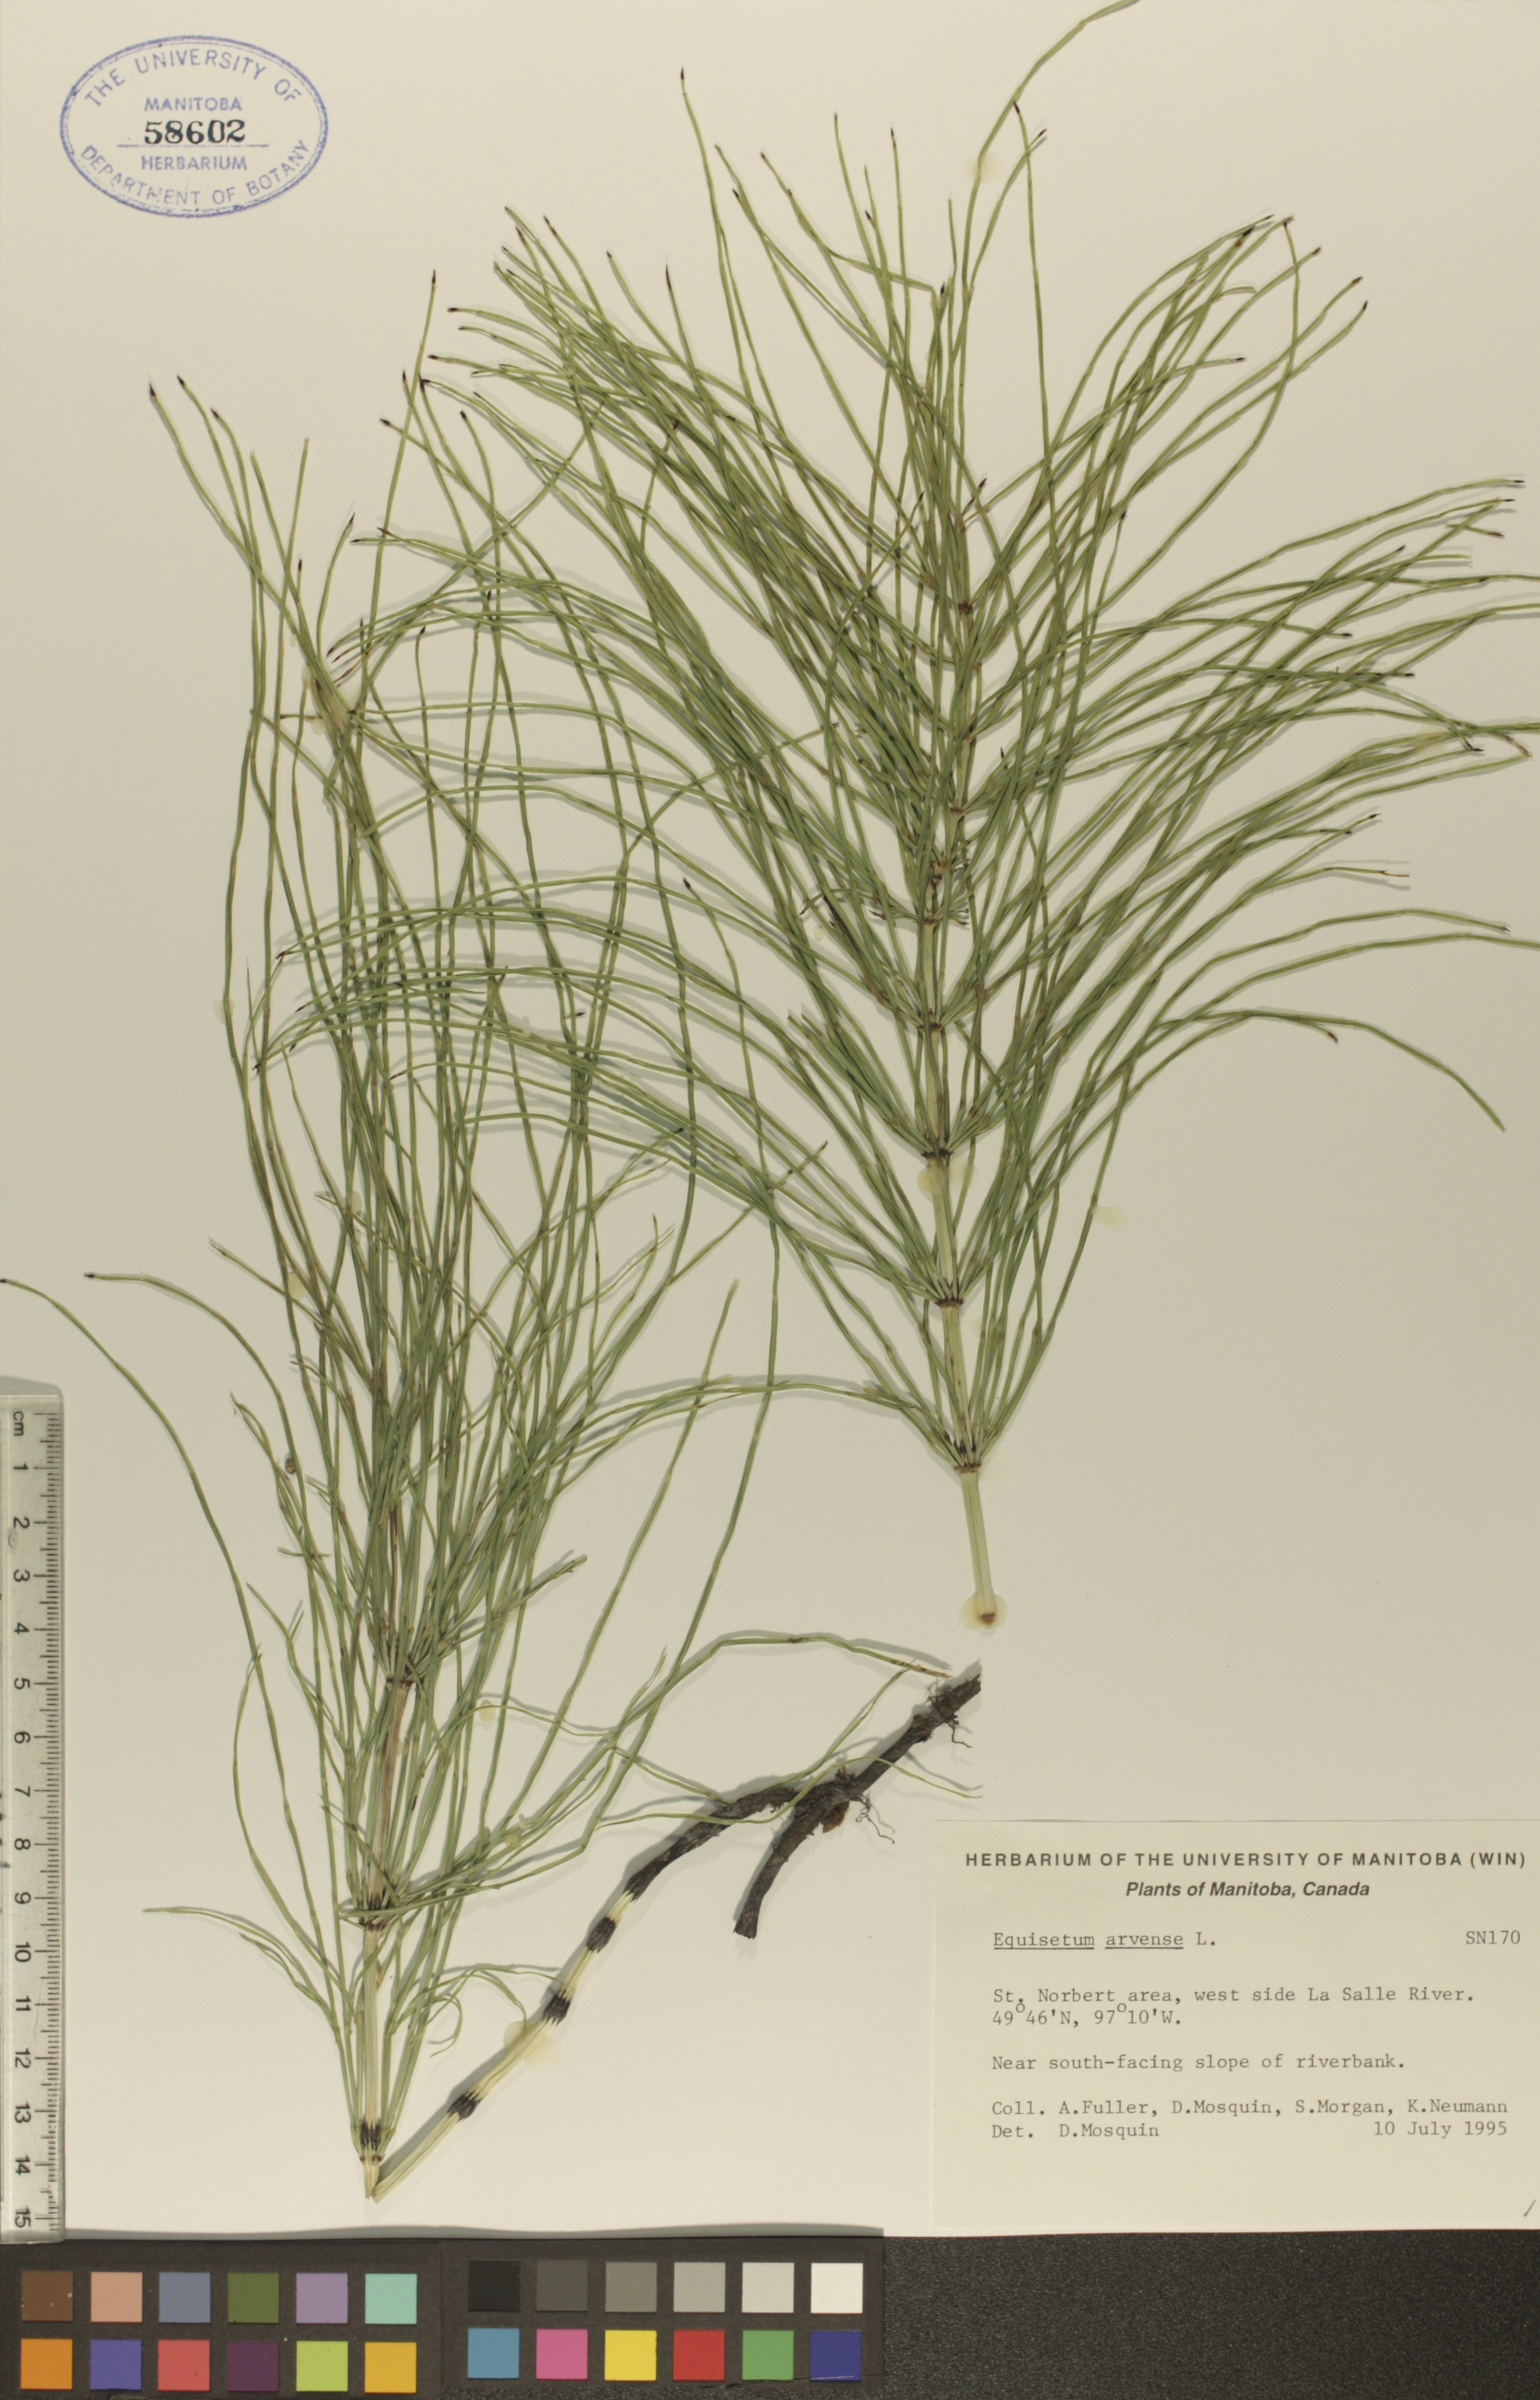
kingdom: Plantae
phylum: Tracheophyta
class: Polypodiopsida
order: Equisetales
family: Equisetaceae
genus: Equisetum
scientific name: Equisetum arvense
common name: Field horsetail
